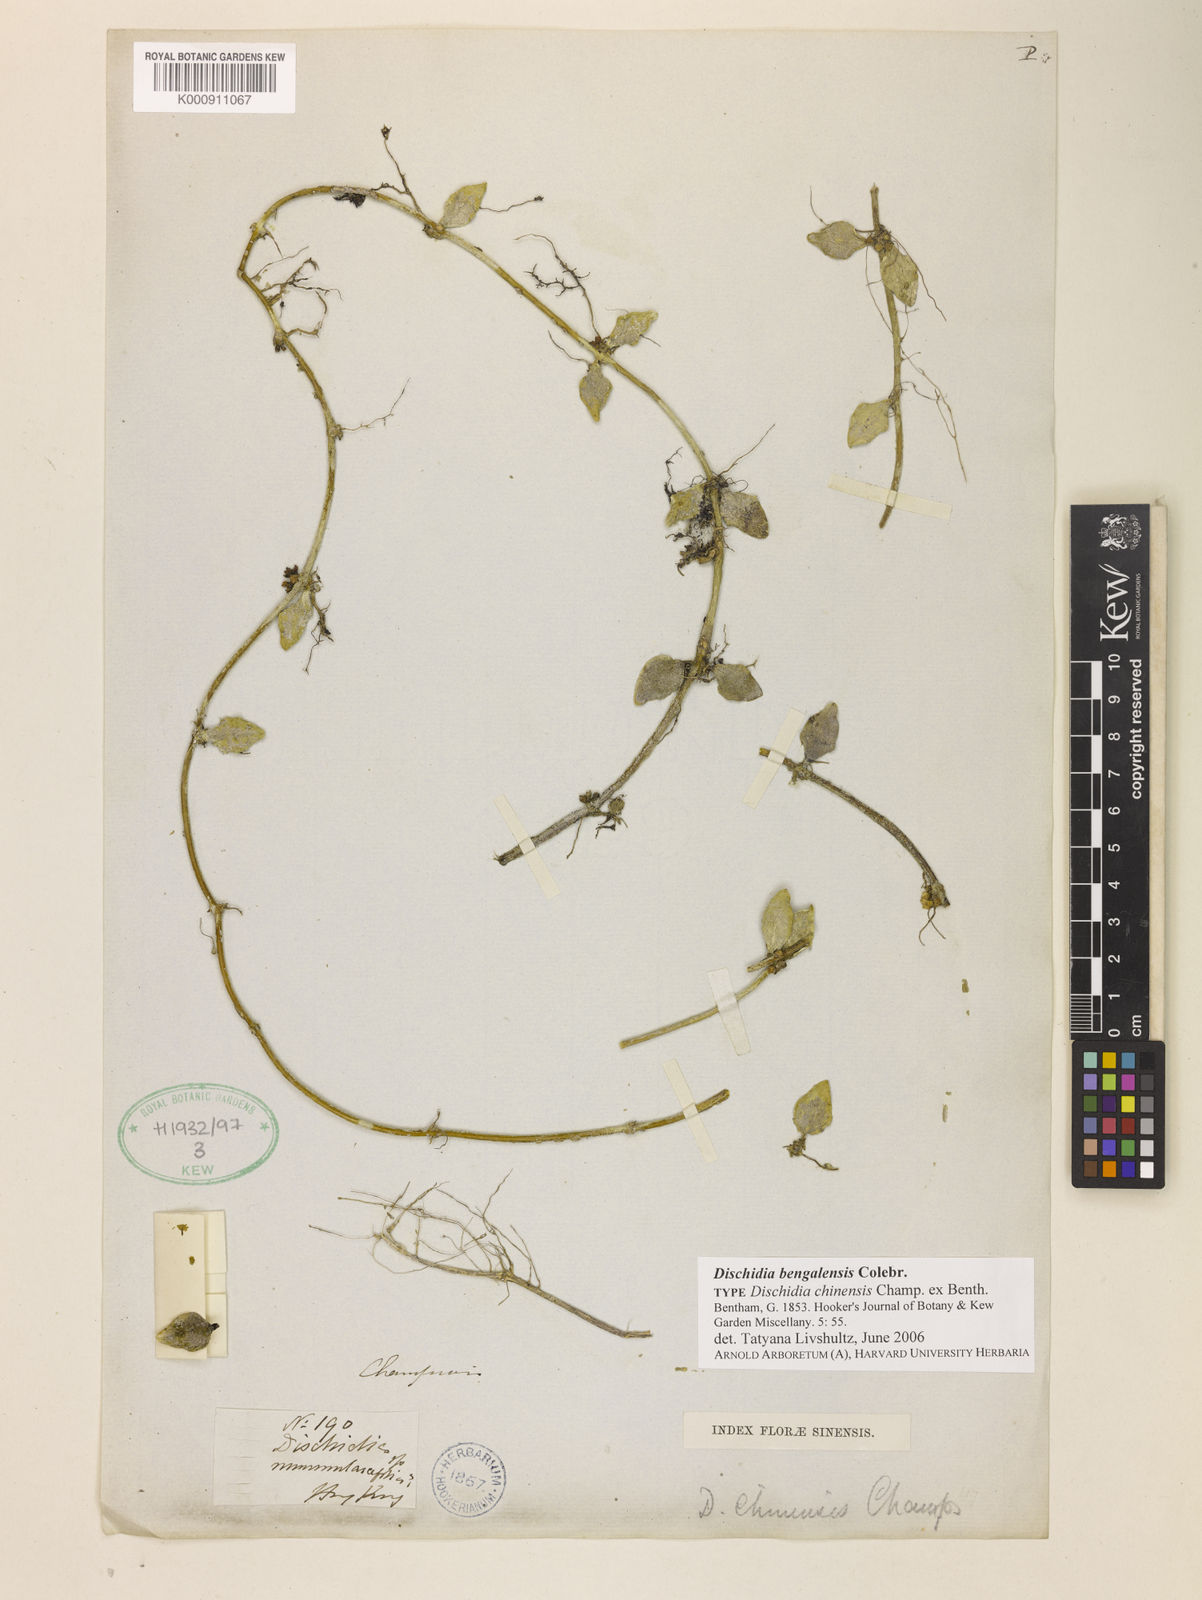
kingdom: Plantae
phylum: Tracheophyta
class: Magnoliopsida
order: Gentianales
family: Apocynaceae
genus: Dischidia
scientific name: Dischidia bengalensis
